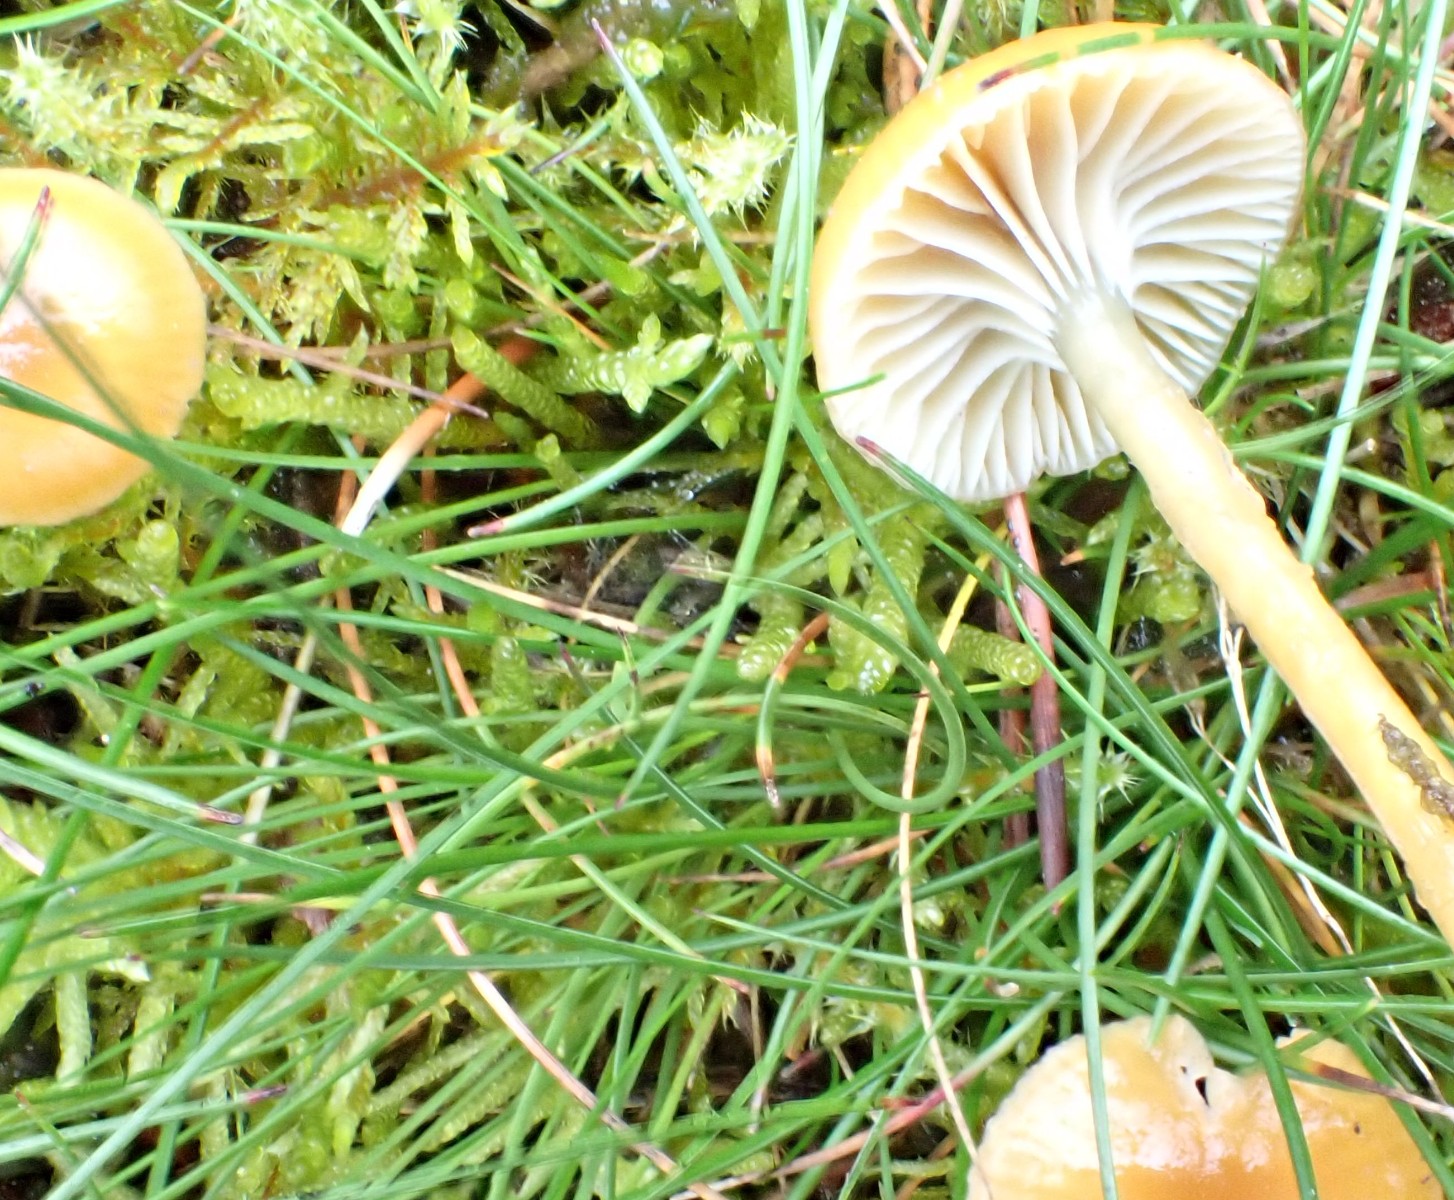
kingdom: Fungi
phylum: Basidiomycota
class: Agaricomycetes
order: Agaricales
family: Hygrophoraceae
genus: Gliophorus
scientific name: Gliophorus laetus
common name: brusk-vokshat
